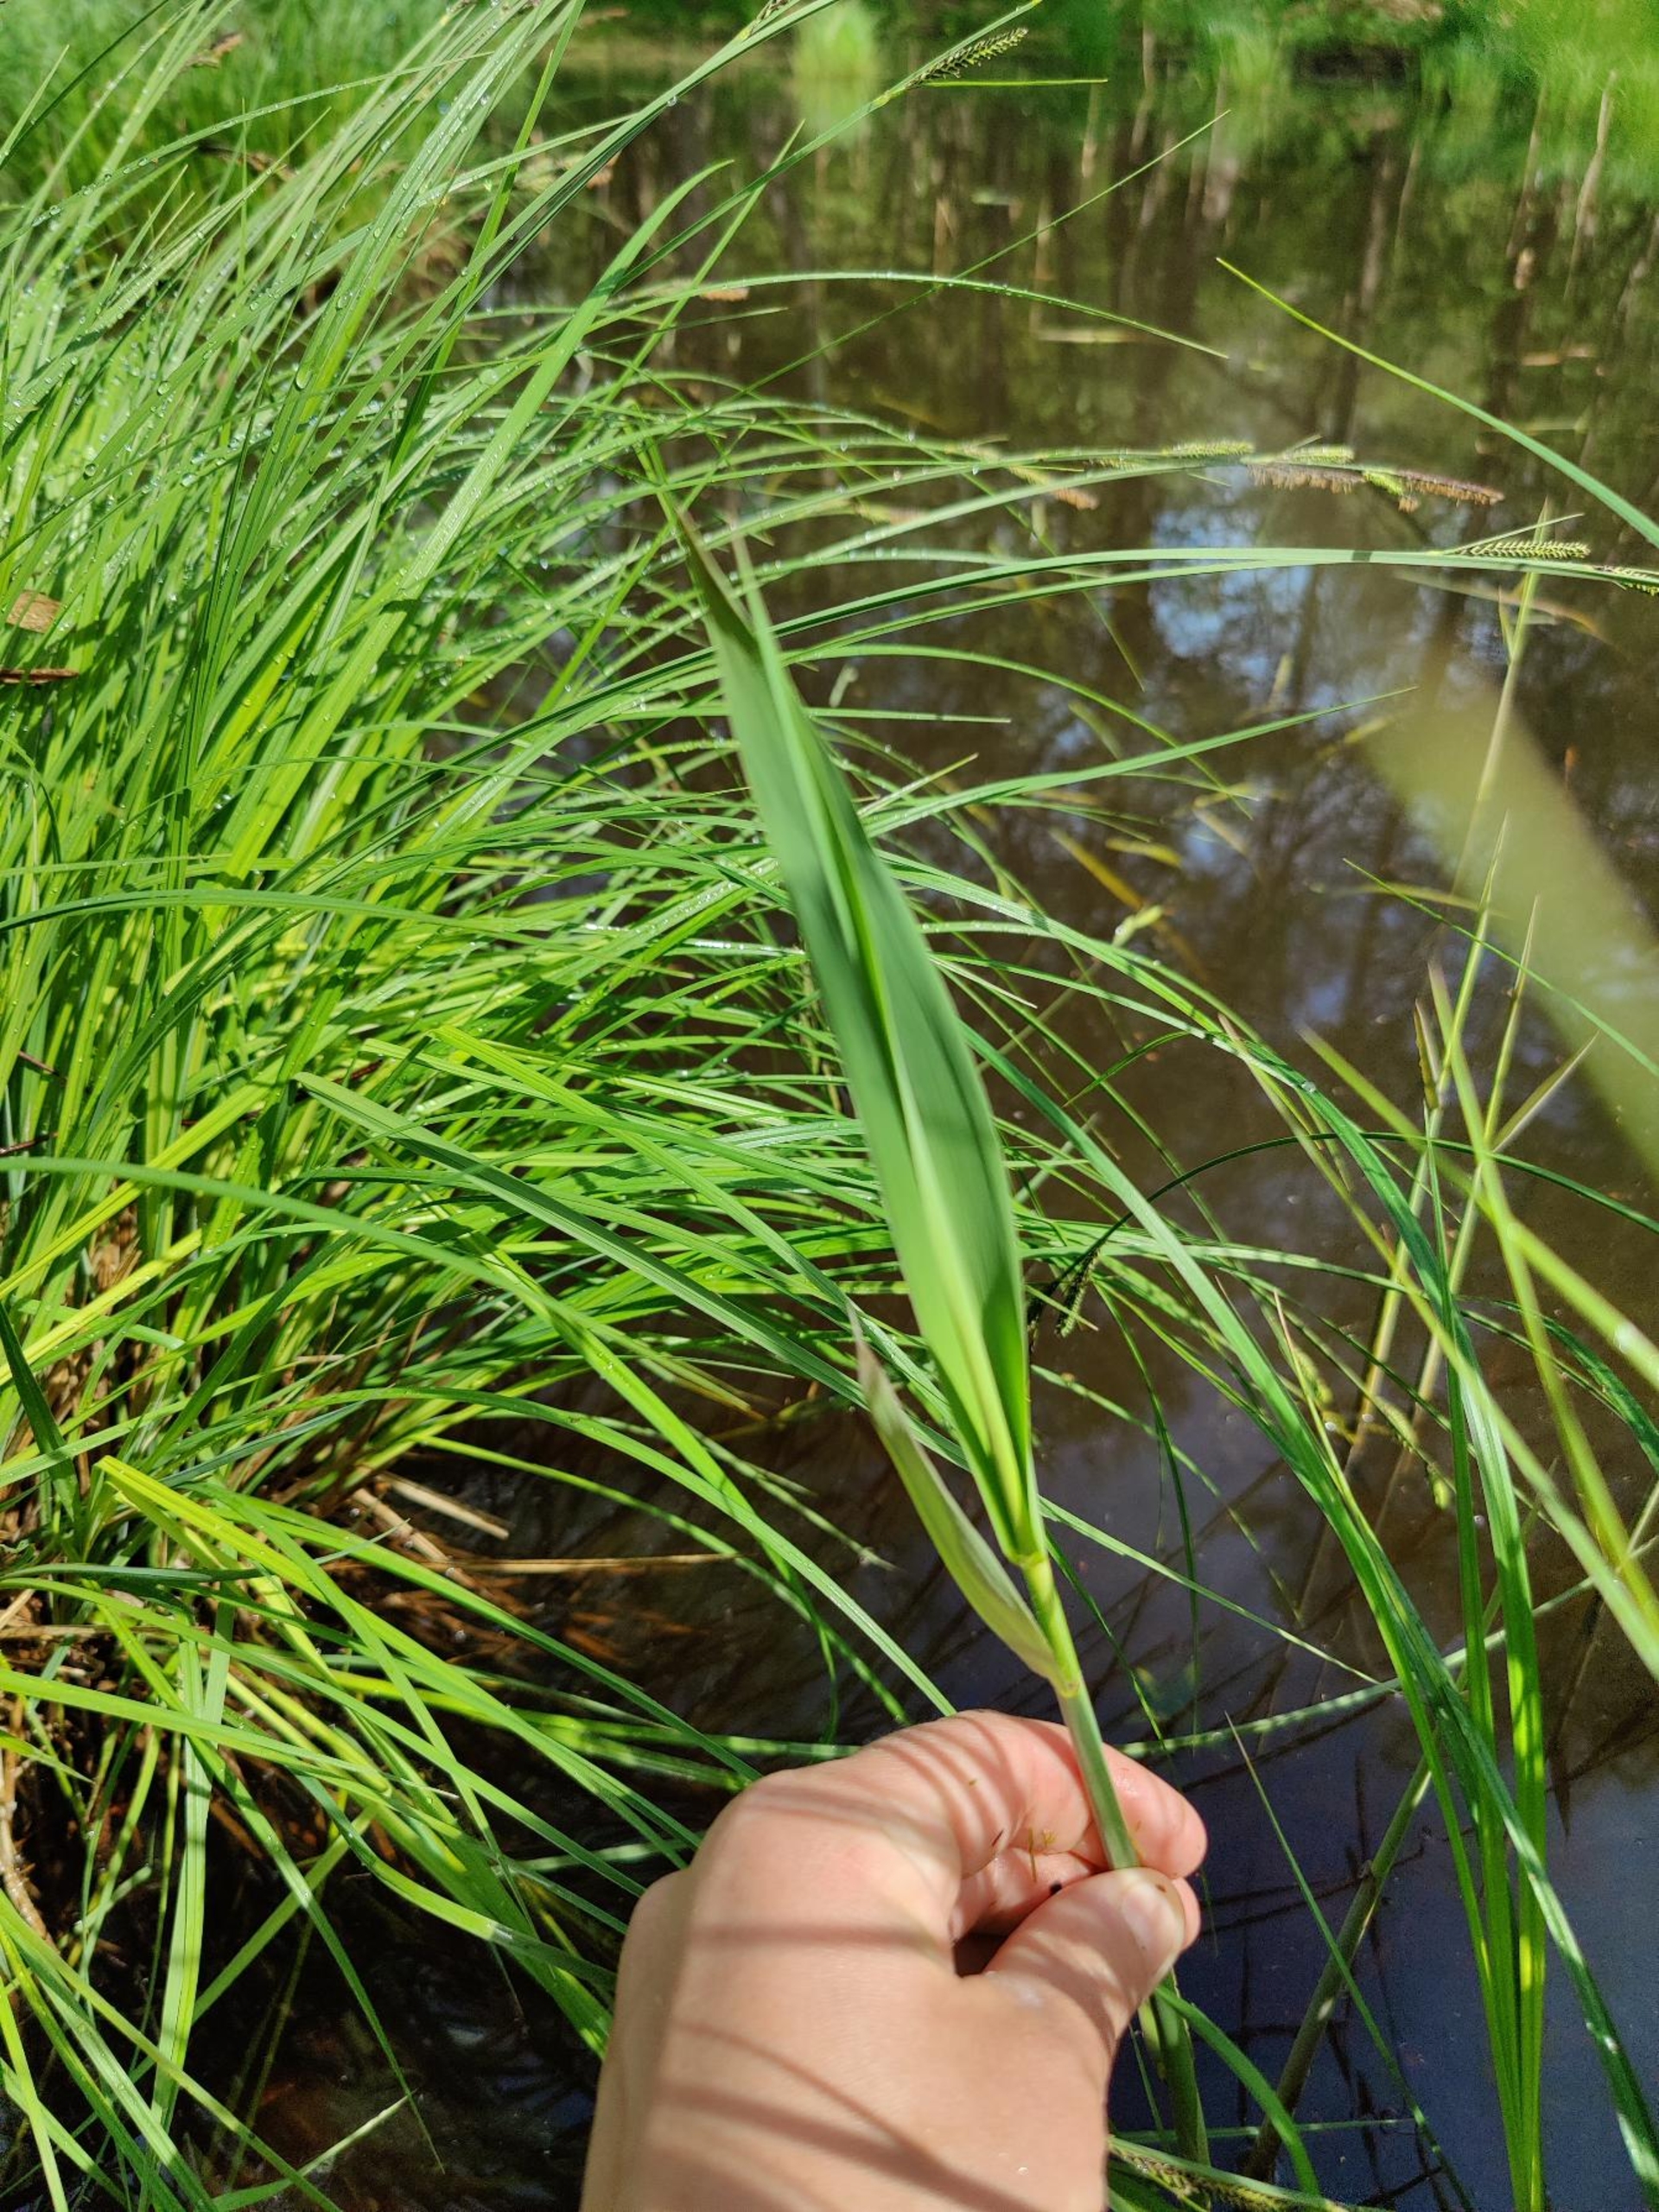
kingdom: Plantae
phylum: Tracheophyta
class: Liliopsida
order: Poales
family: Poaceae
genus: Phragmites
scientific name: Phragmites australis
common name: Tagrør
